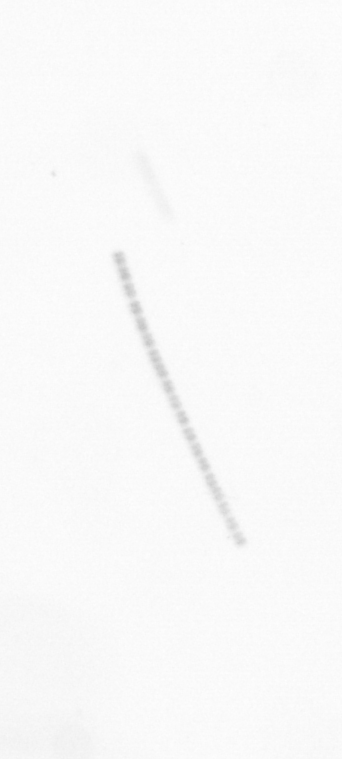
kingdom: Chromista
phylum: Ochrophyta
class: Bacillariophyceae
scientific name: Bacillariophyceae
